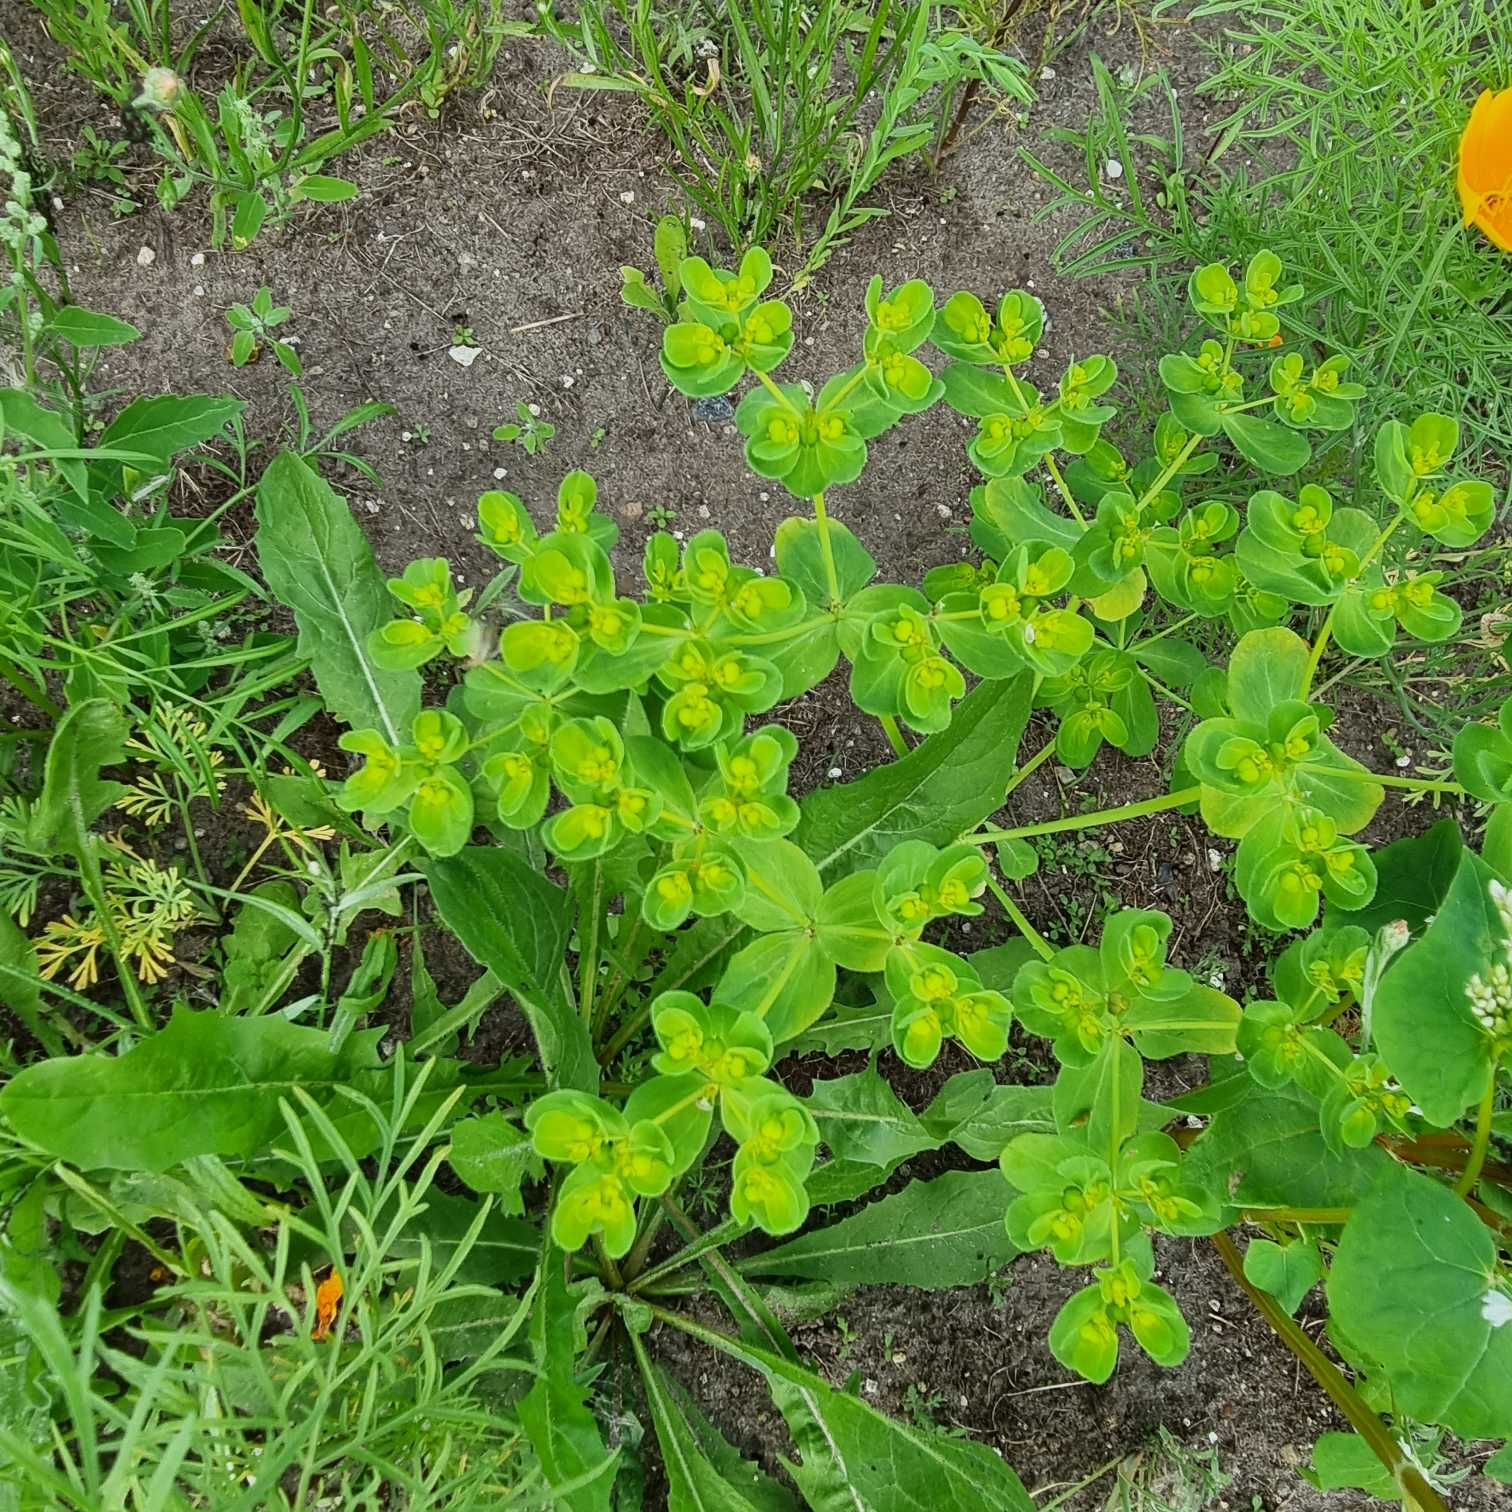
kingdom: Plantae
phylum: Tracheophyta
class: Magnoliopsida
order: Malpighiales
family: Euphorbiaceae
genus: Euphorbia
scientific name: Euphorbia helioscopia
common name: Skærm-vortemælk
